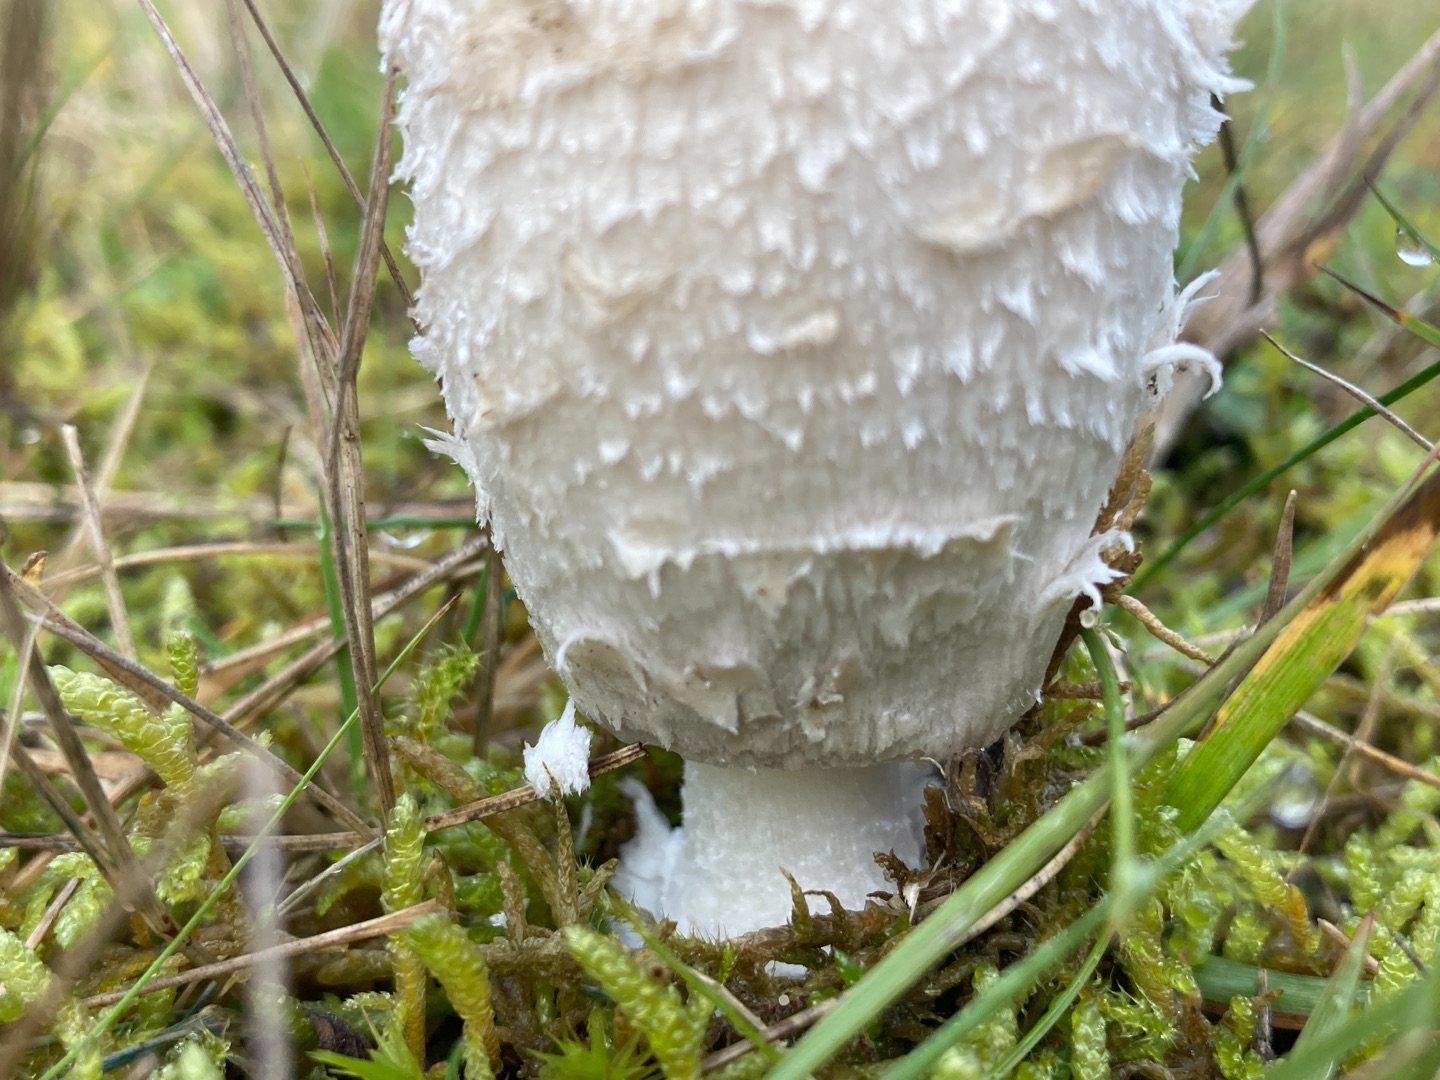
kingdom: Fungi
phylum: Basidiomycota
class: Agaricomycetes
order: Agaricales
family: Agaricaceae
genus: Coprinus
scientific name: Coprinus comatus
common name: Stor parykhat
